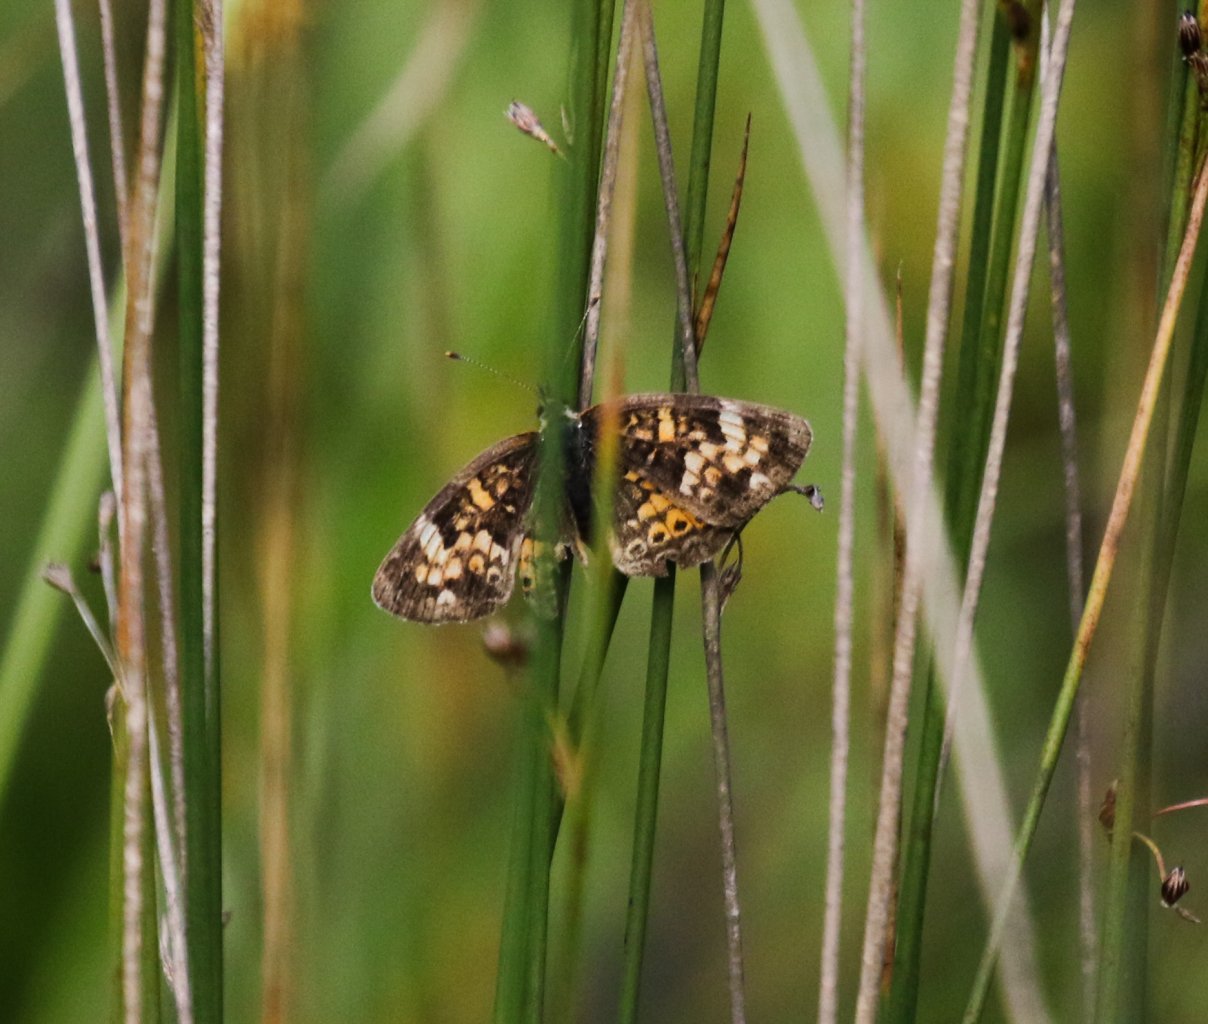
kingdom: Animalia
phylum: Arthropoda
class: Insecta
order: Lepidoptera
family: Nymphalidae
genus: Phyciodes
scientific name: Phyciodes tharos
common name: Northern Crescent
